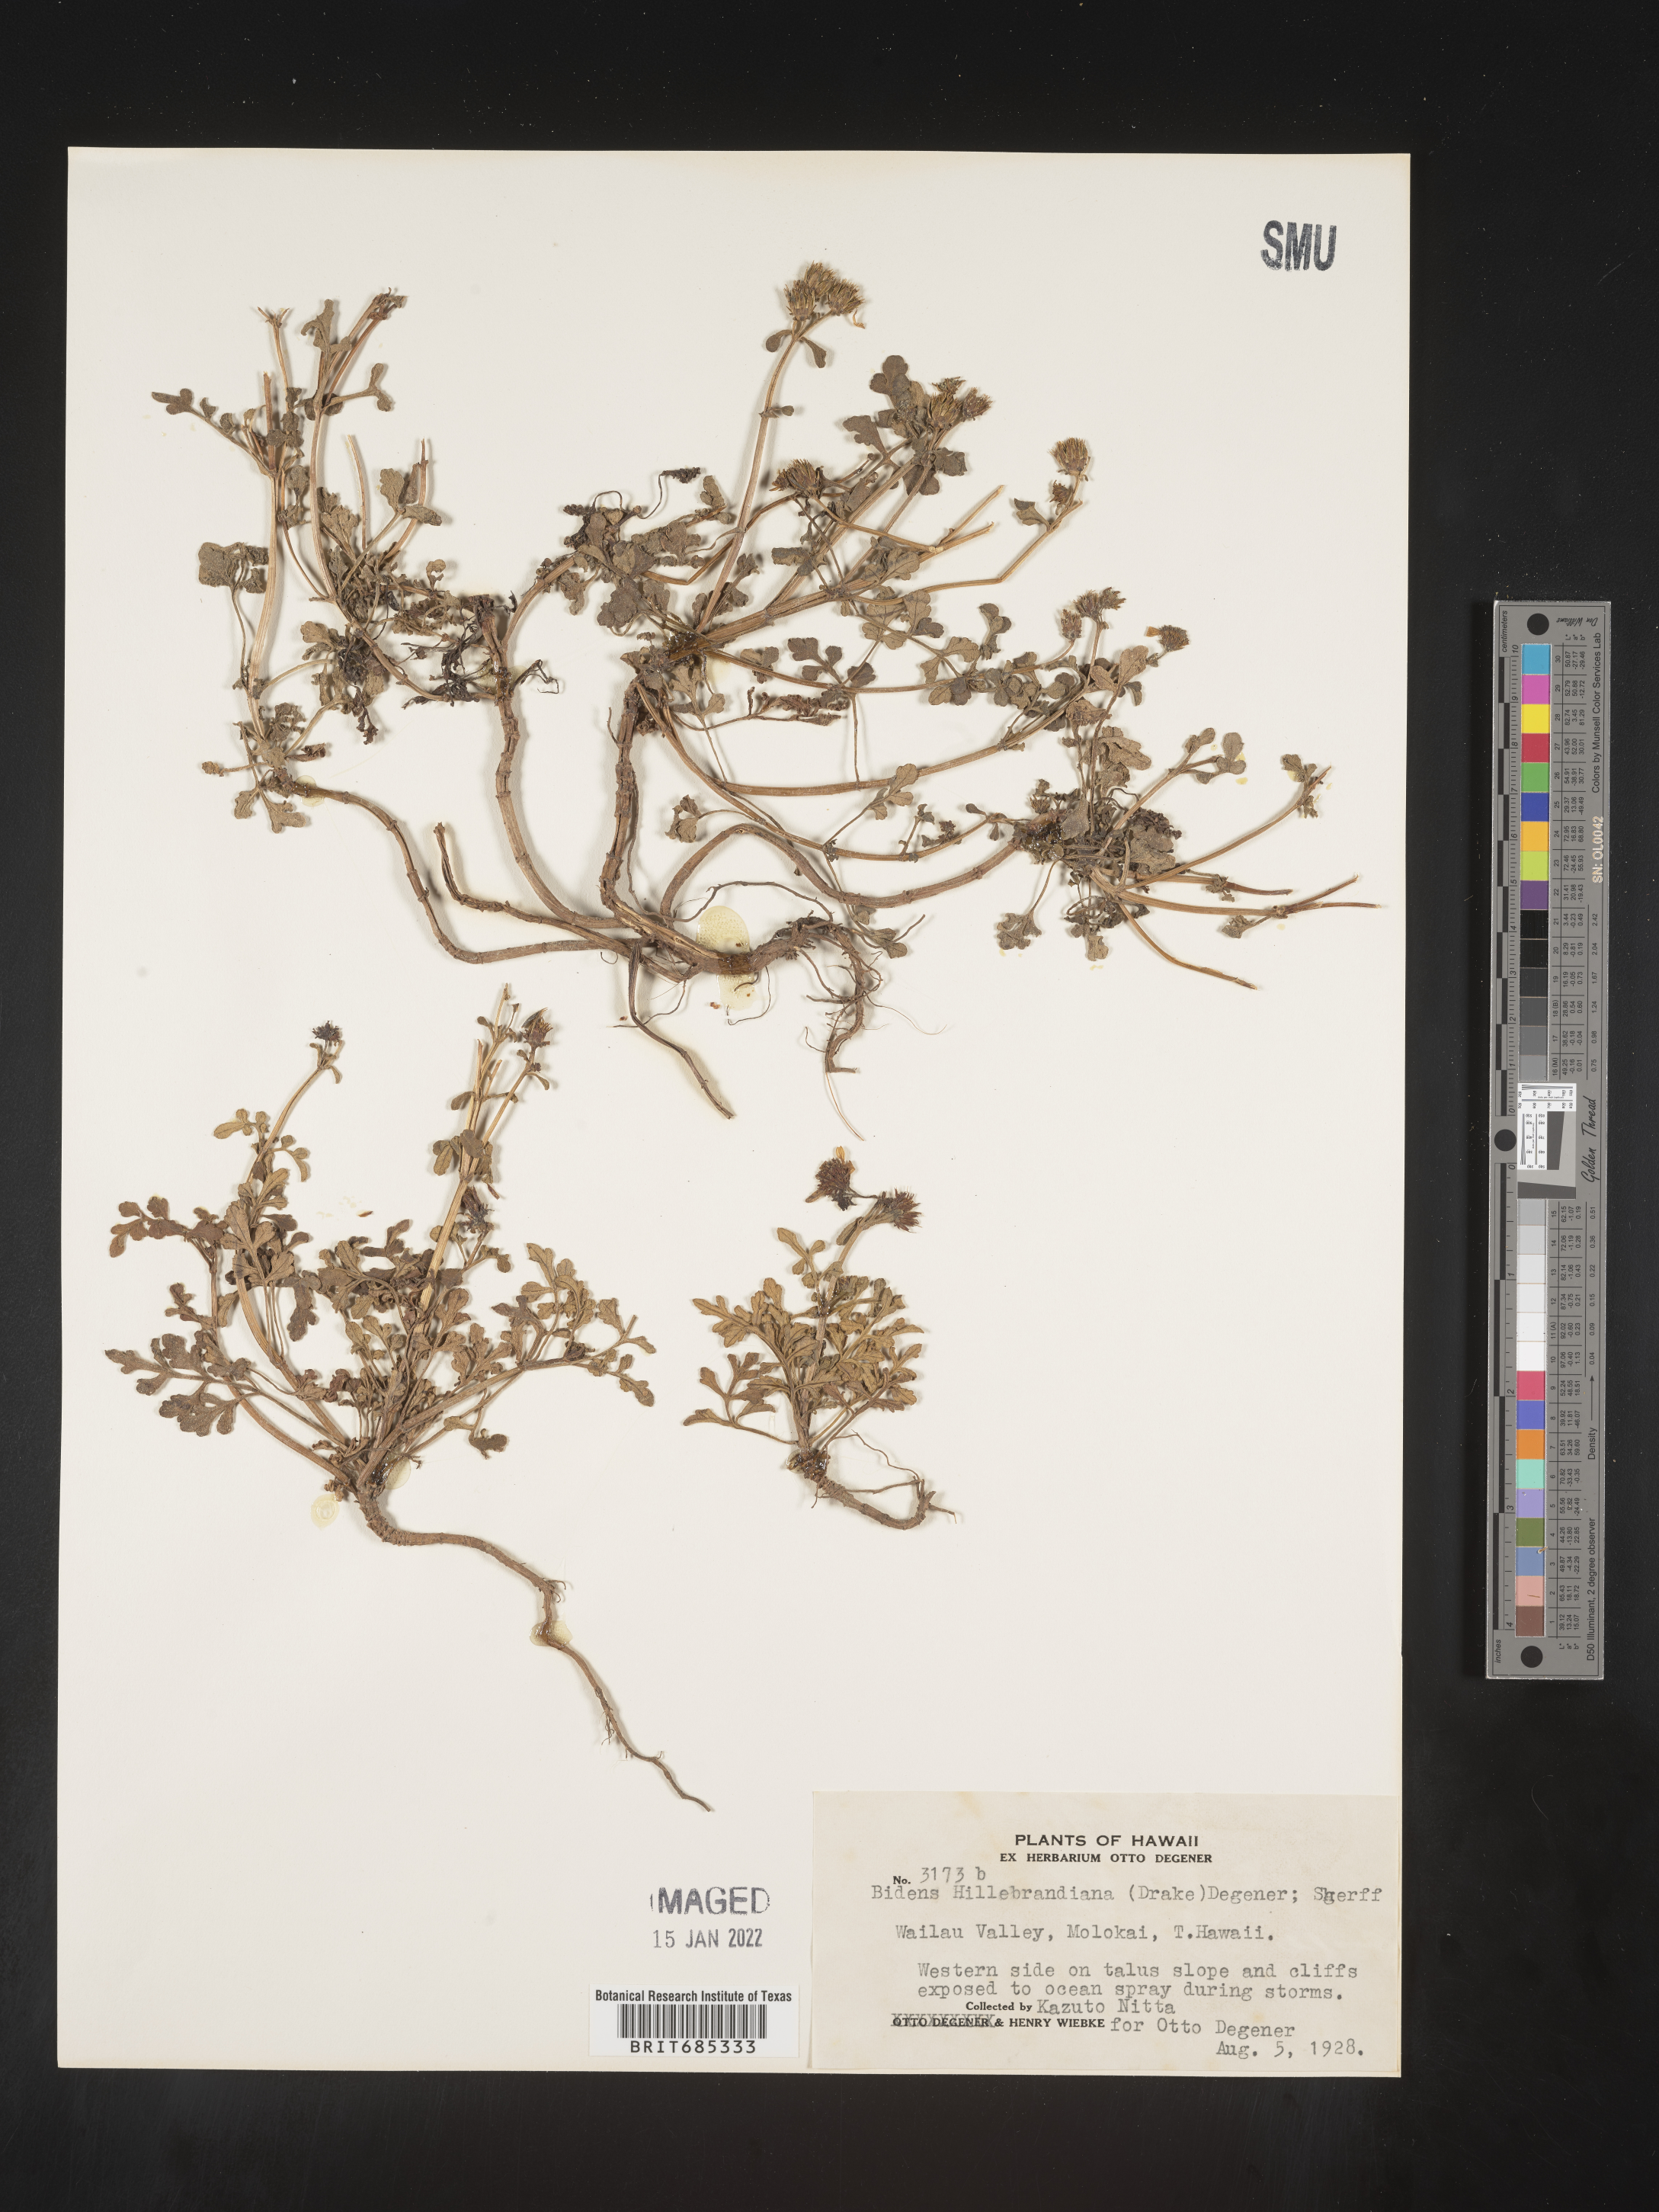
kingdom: Plantae
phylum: Tracheophyta
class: Magnoliopsida
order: Asterales
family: Asteraceae
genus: Bidens
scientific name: Bidens
